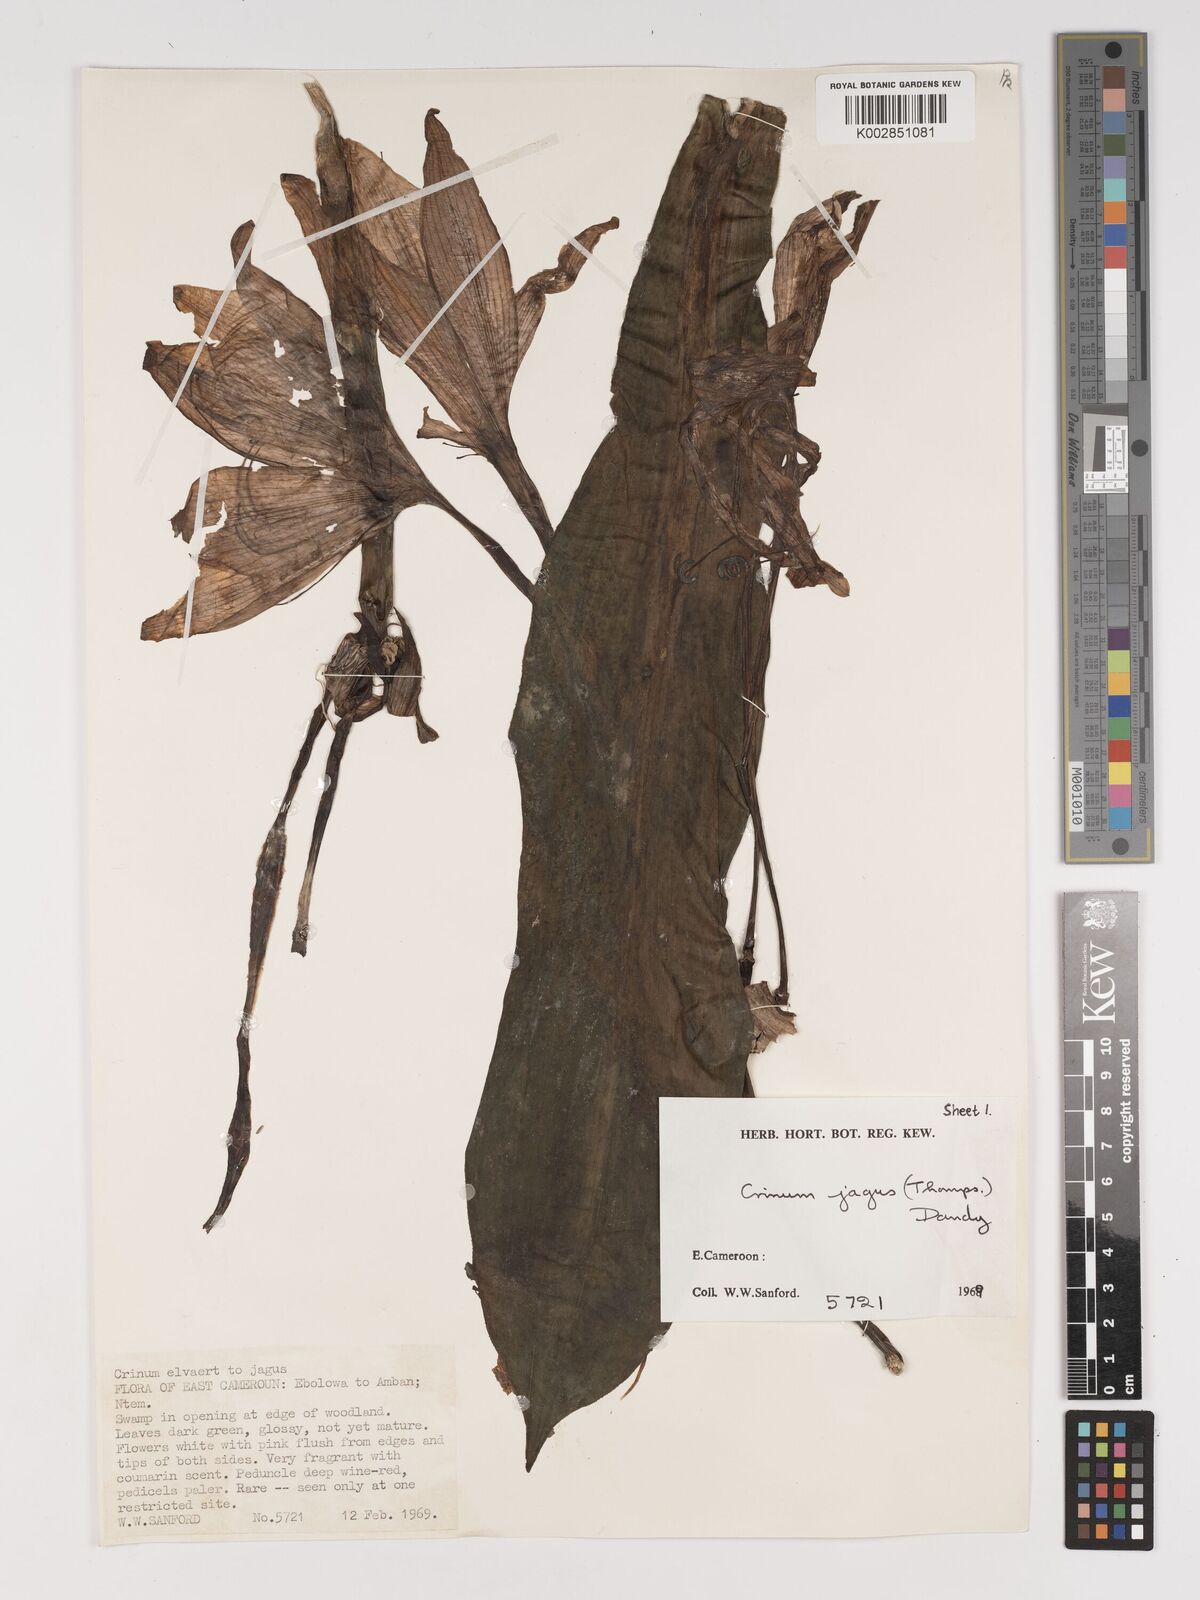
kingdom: Plantae
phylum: Tracheophyta
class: Liliopsida
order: Asparagales
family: Amaryllidaceae
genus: Crinum
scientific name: Crinum jagus
